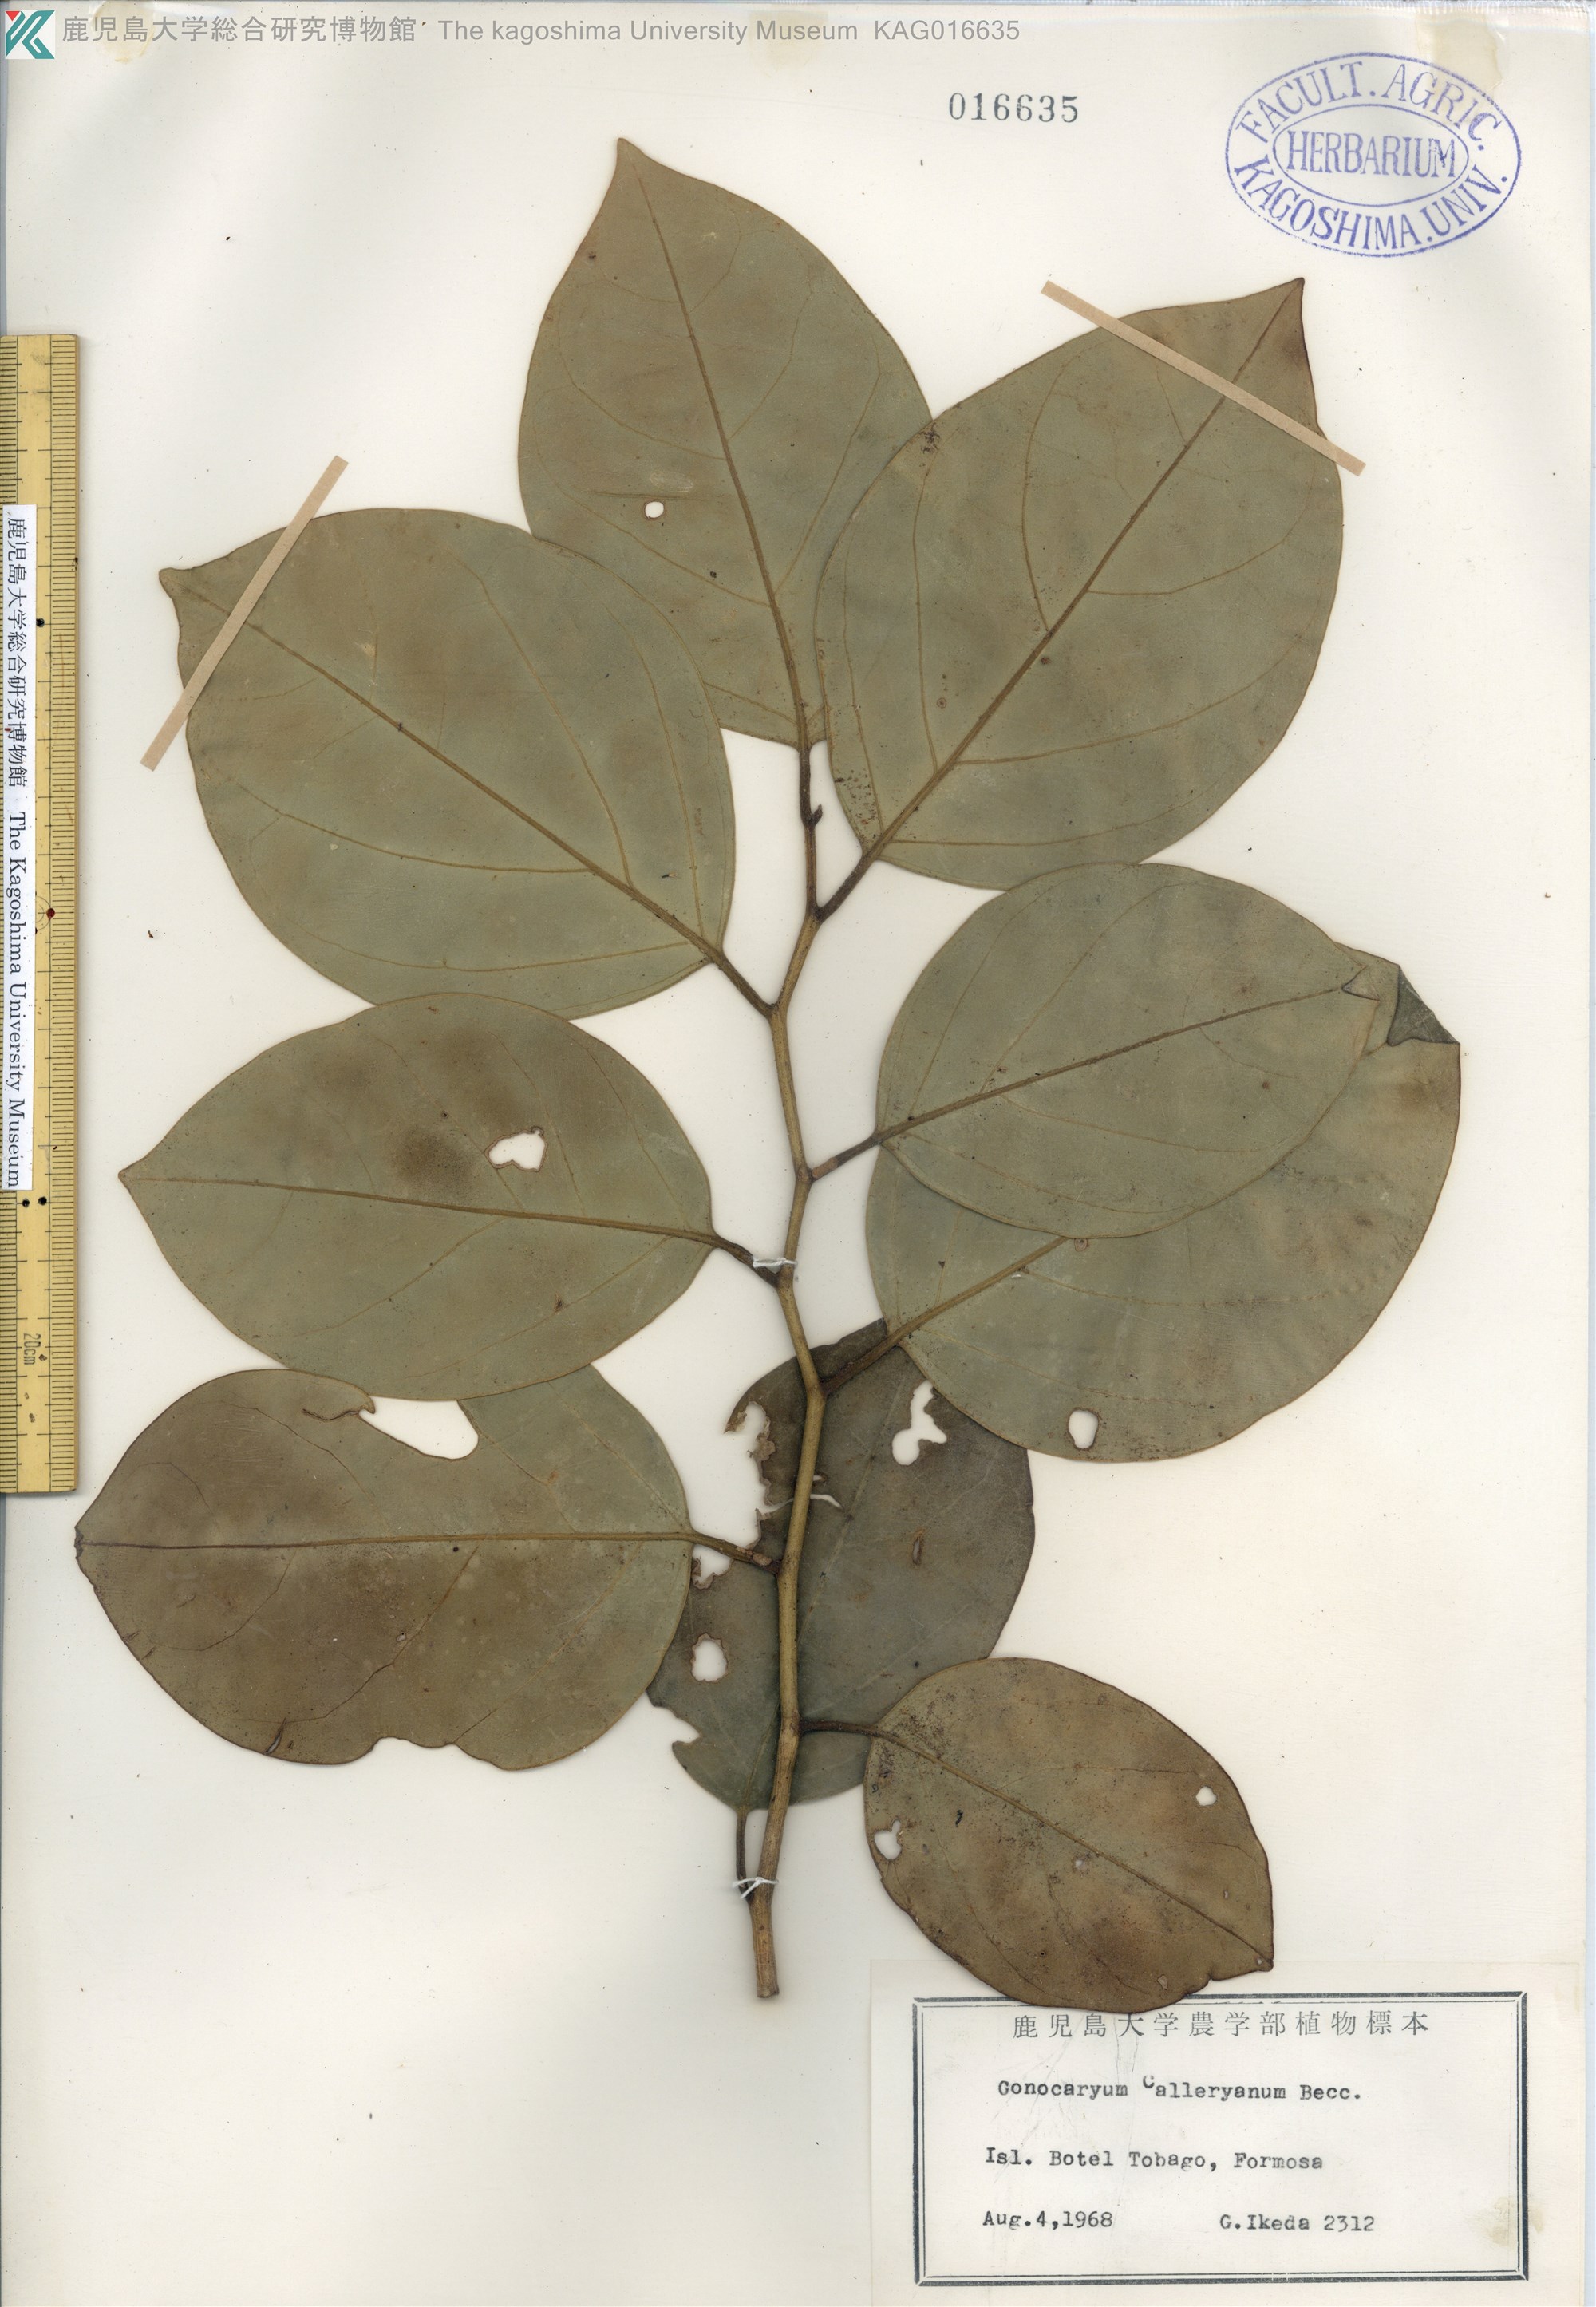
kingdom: Plantae
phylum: Tracheophyta
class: Magnoliopsida
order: Cardiopteridales
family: Cardiopteridaceae
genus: Gonocaryum
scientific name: Gonocaryum calleryanum
